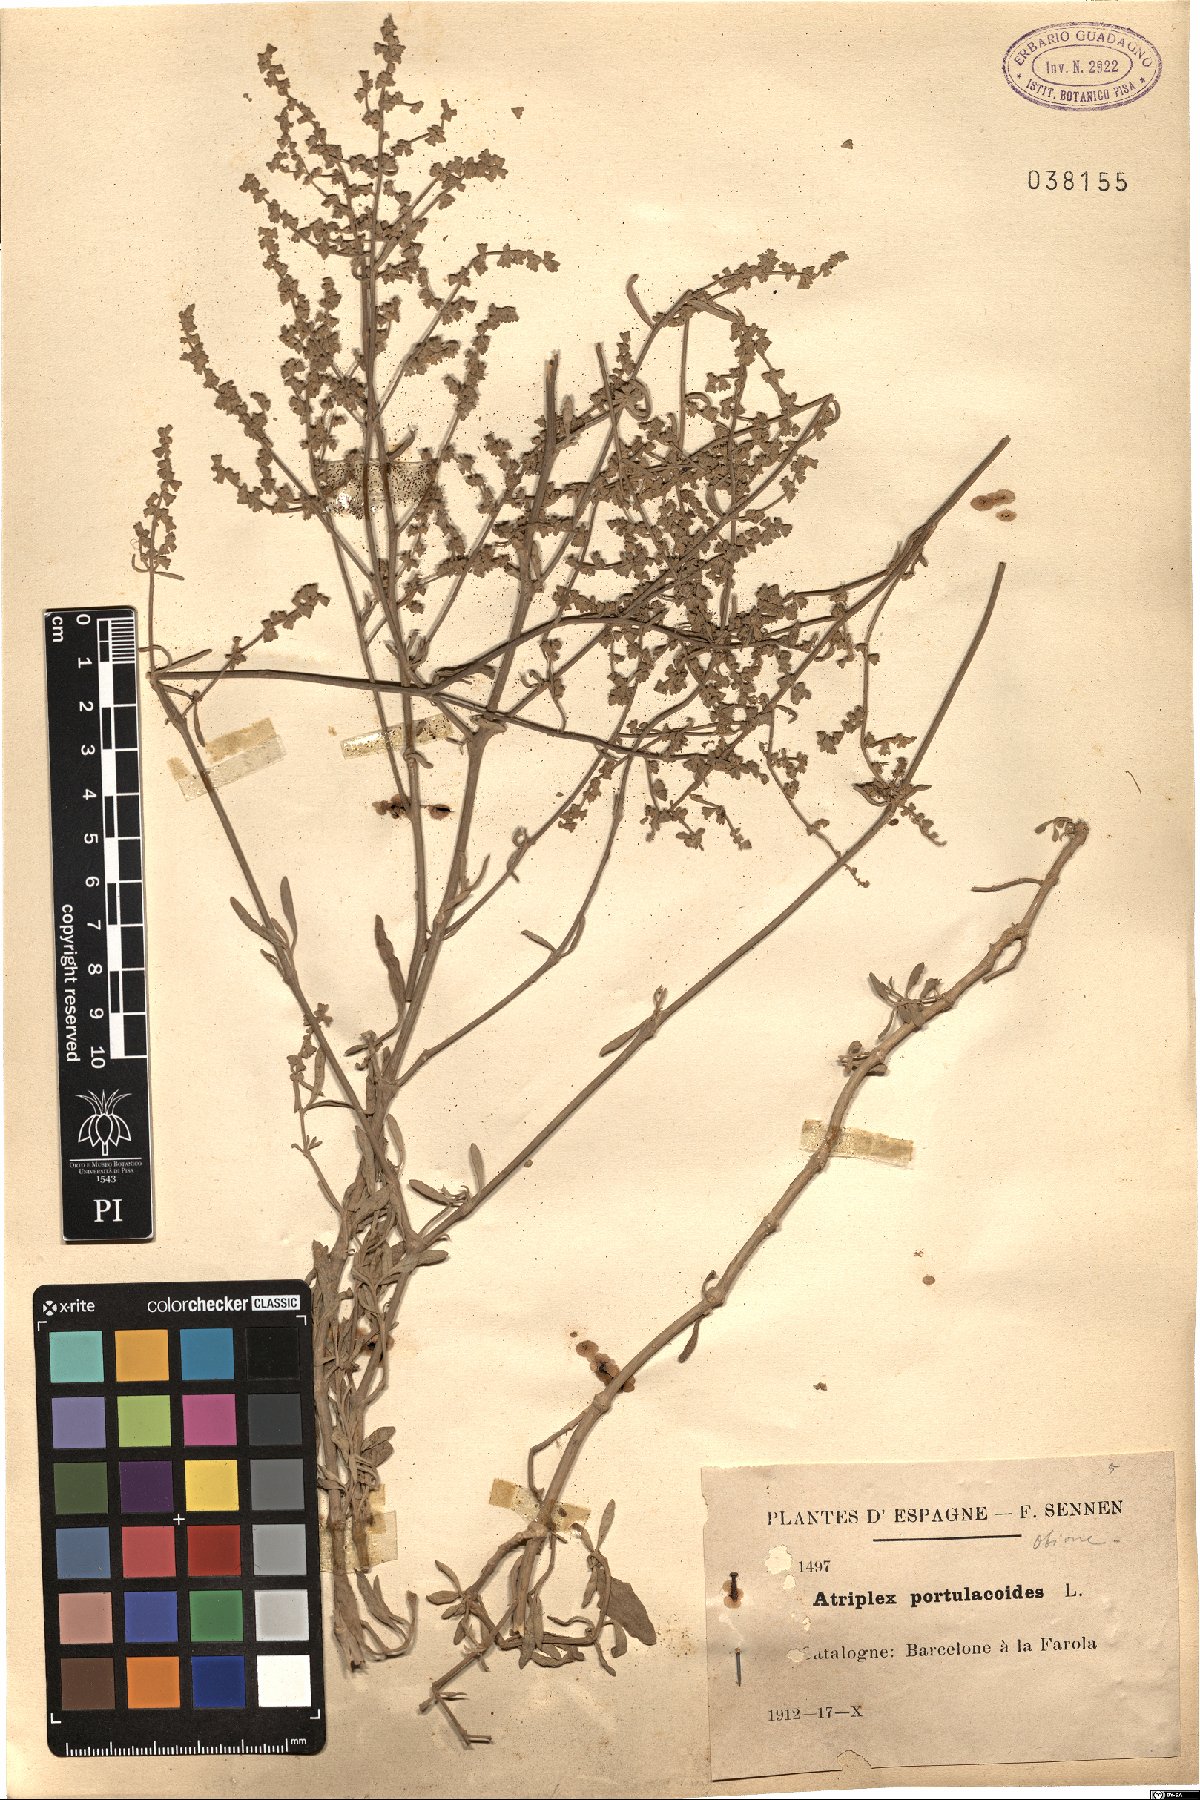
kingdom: Plantae
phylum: Tracheophyta
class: Magnoliopsida
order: Caryophyllales
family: Amaranthaceae
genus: Halimione
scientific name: Halimione portulacoides
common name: Sea-purslane
